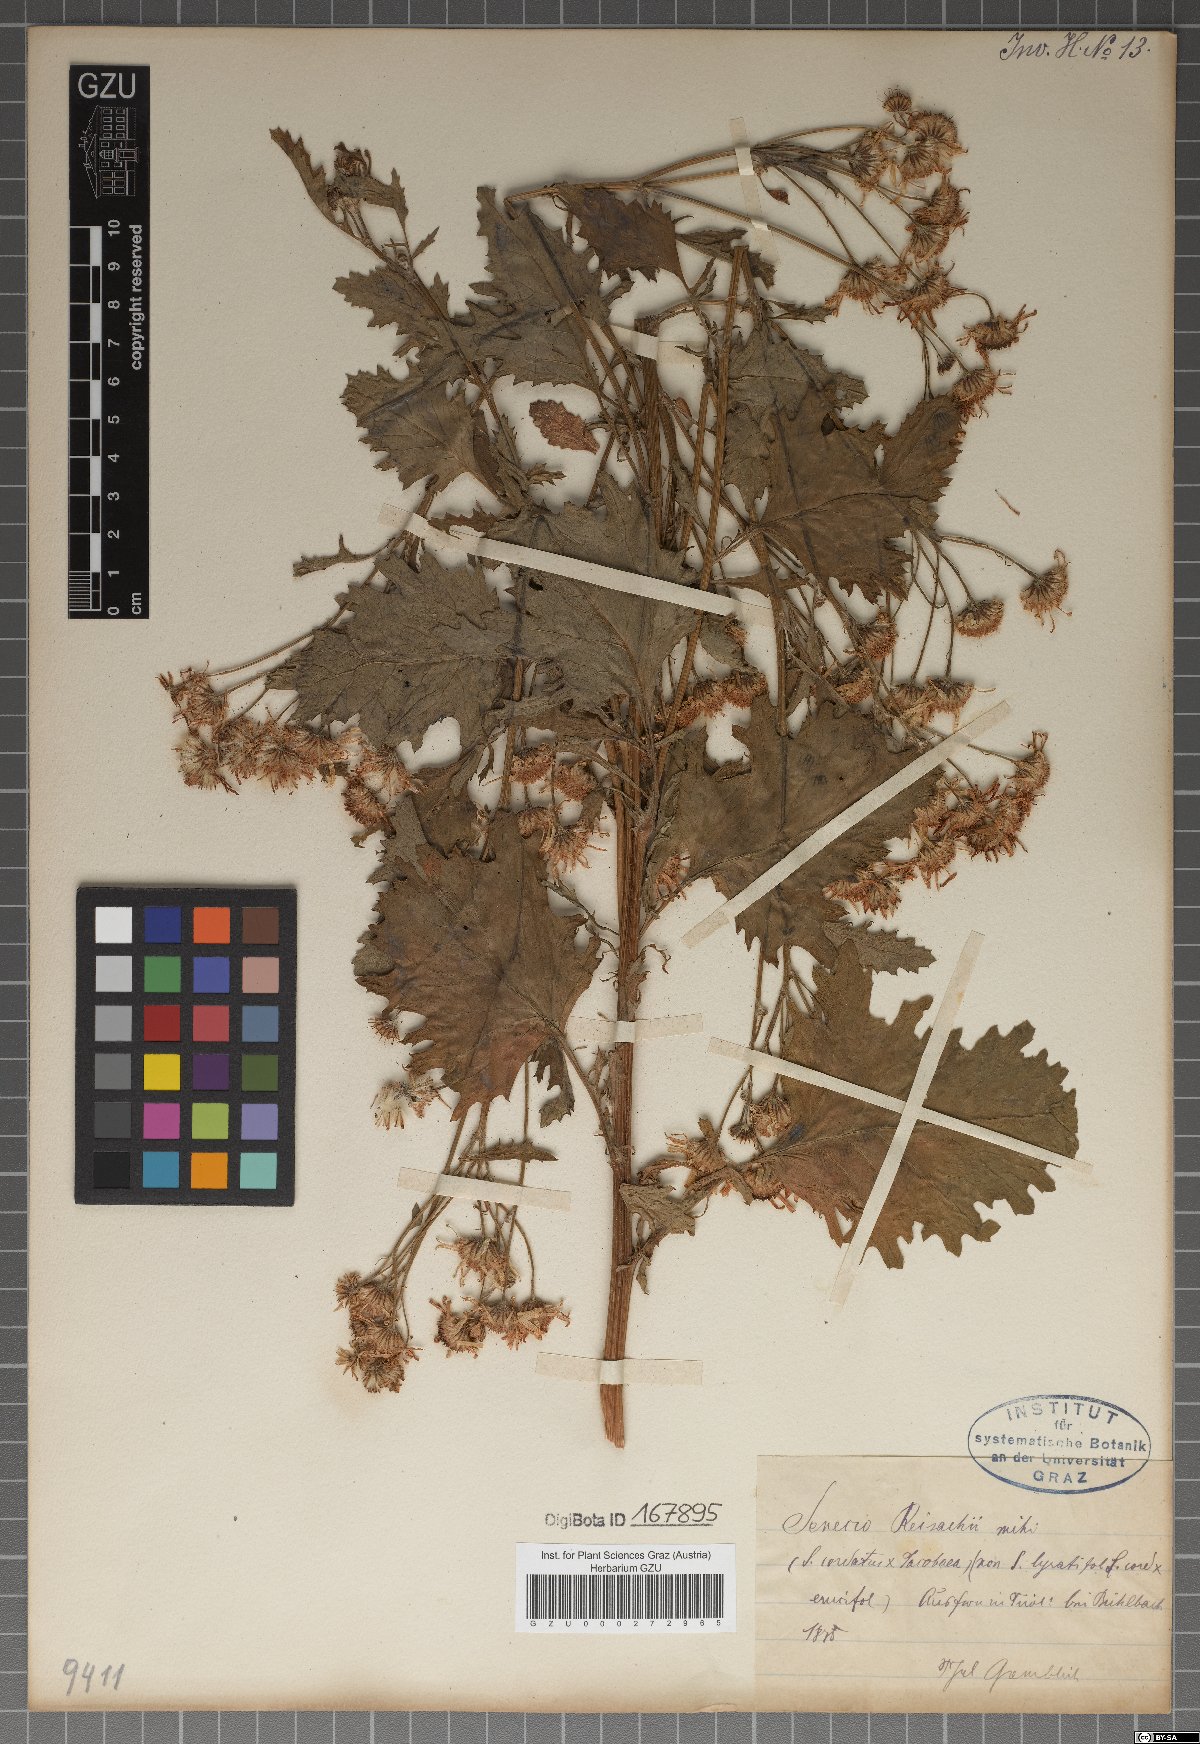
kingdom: Plantae
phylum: Tracheophyta
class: Magnoliopsida
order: Asterales
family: Asteraceae
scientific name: Asteraceae
